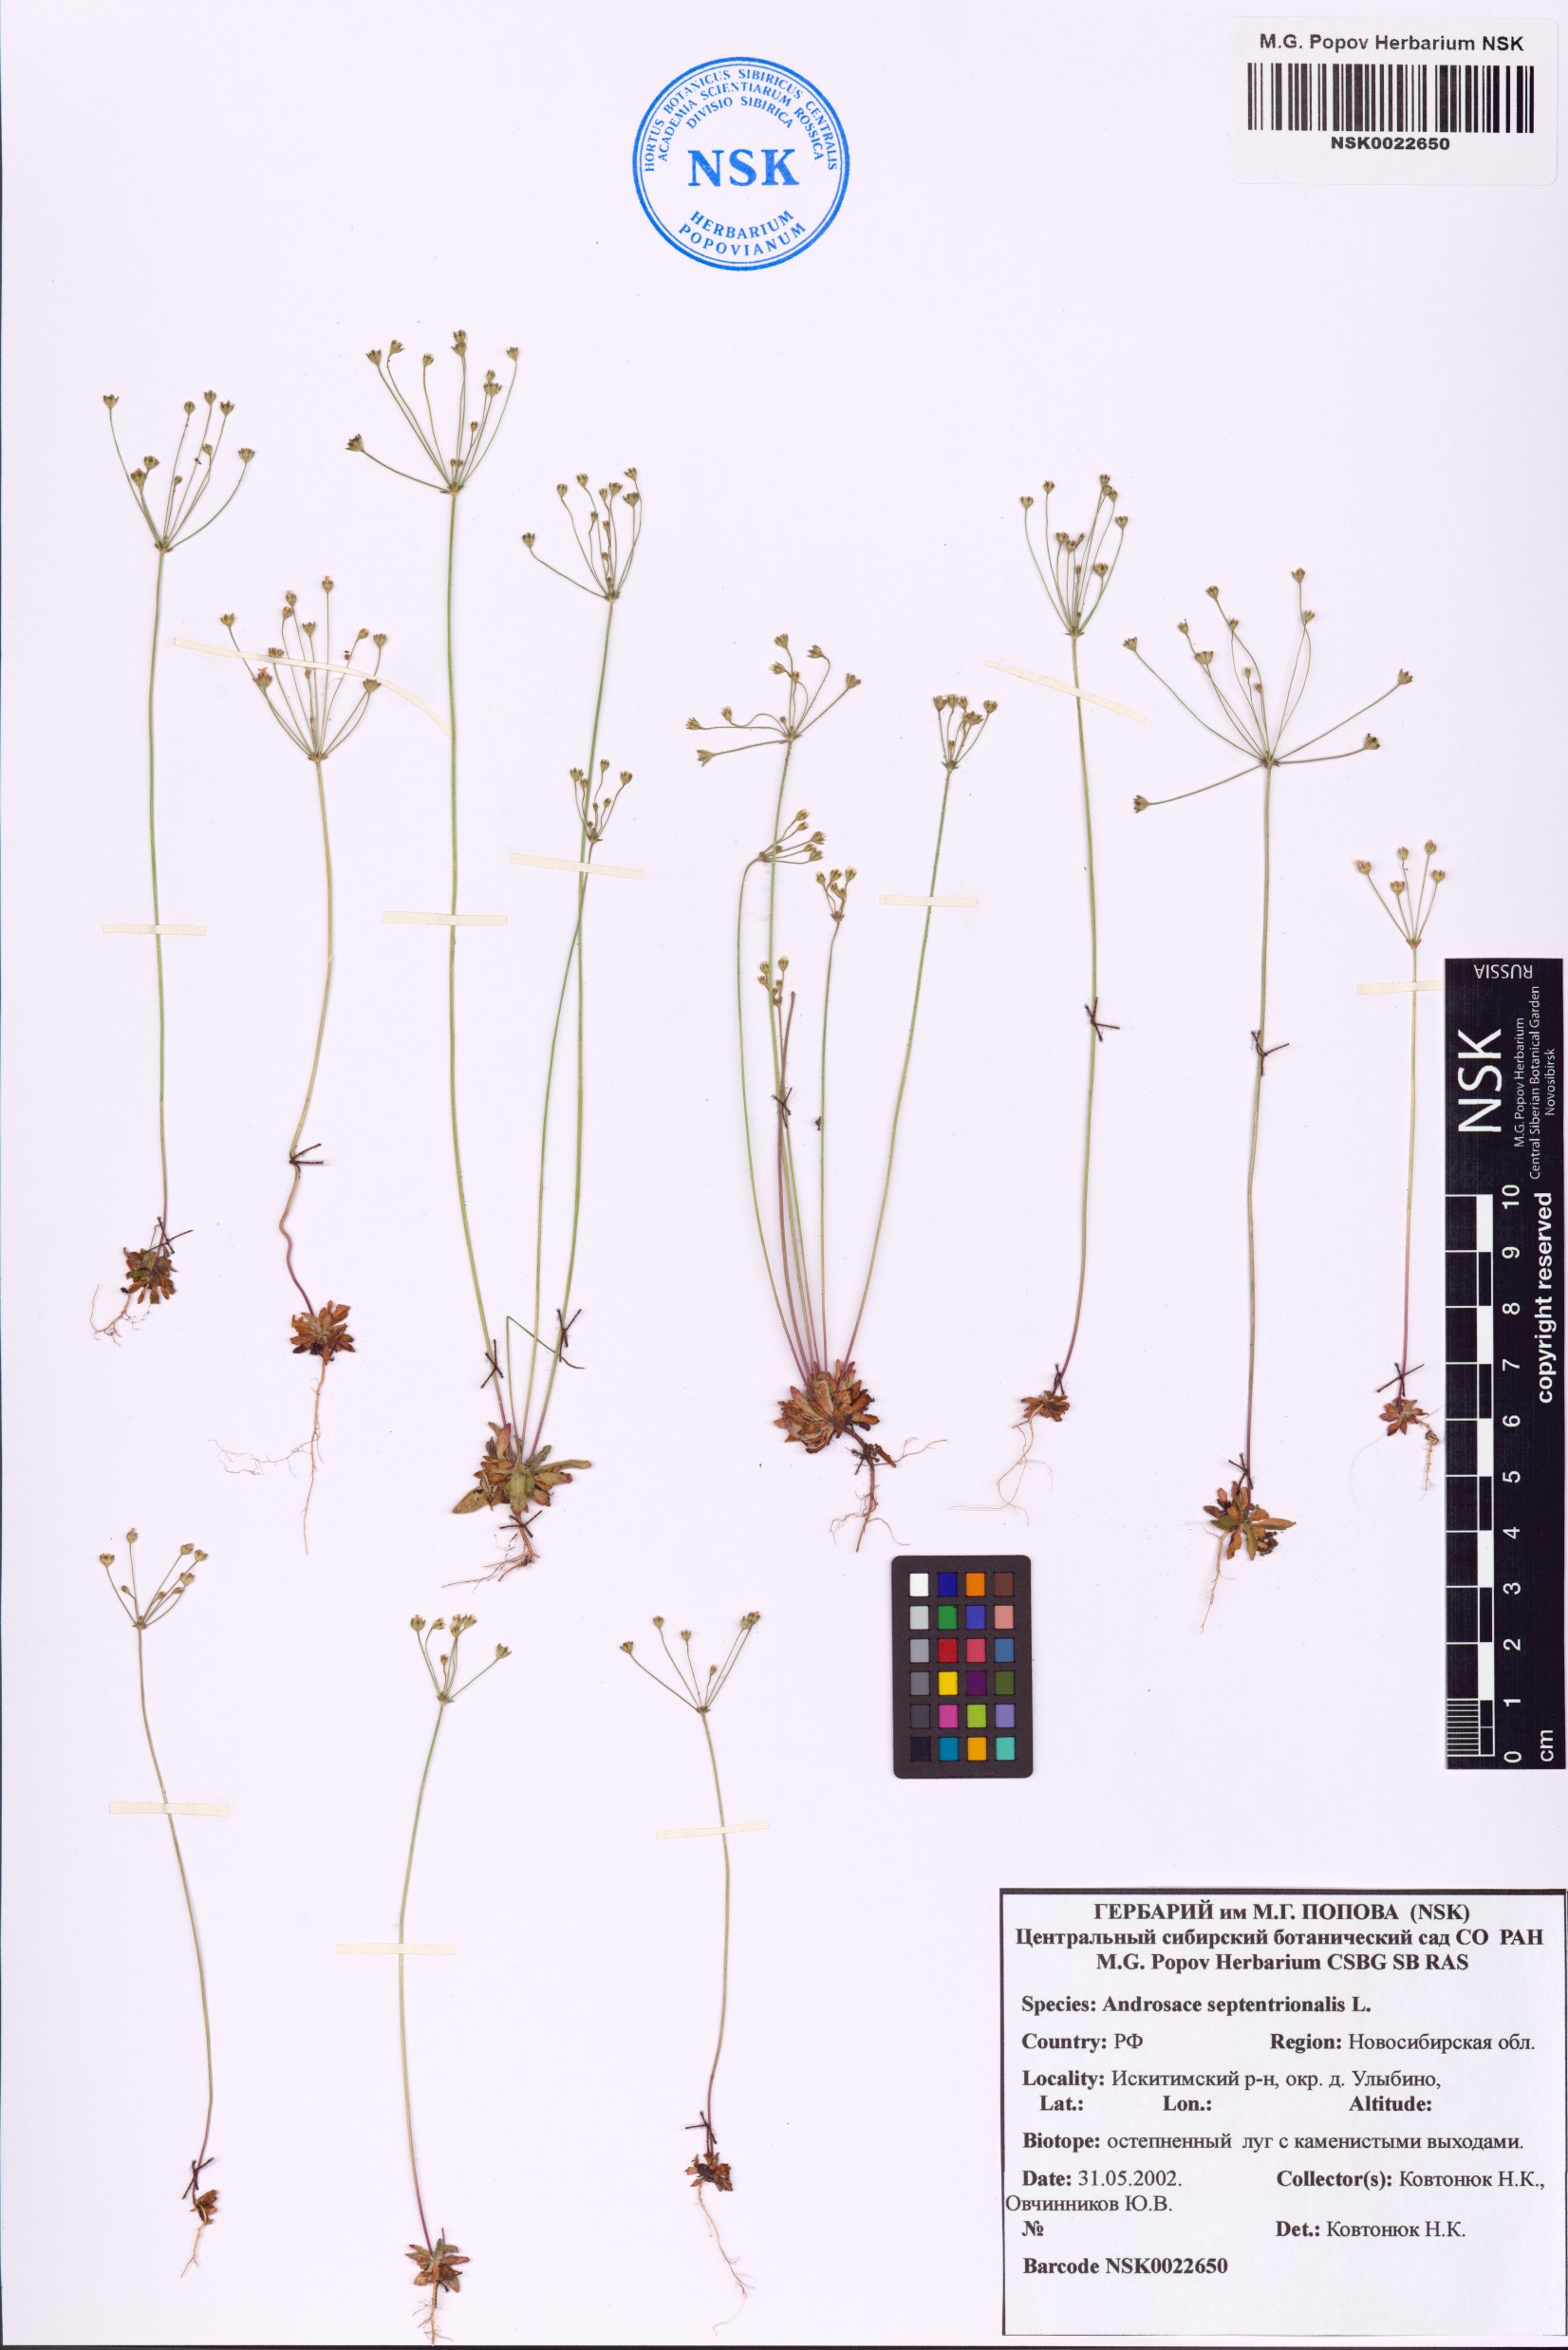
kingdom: Plantae
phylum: Tracheophyta
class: Magnoliopsida
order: Ericales
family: Primulaceae
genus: Androsace
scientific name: Androsace septentrionalis
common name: Hairy northern fairy-candelabra
